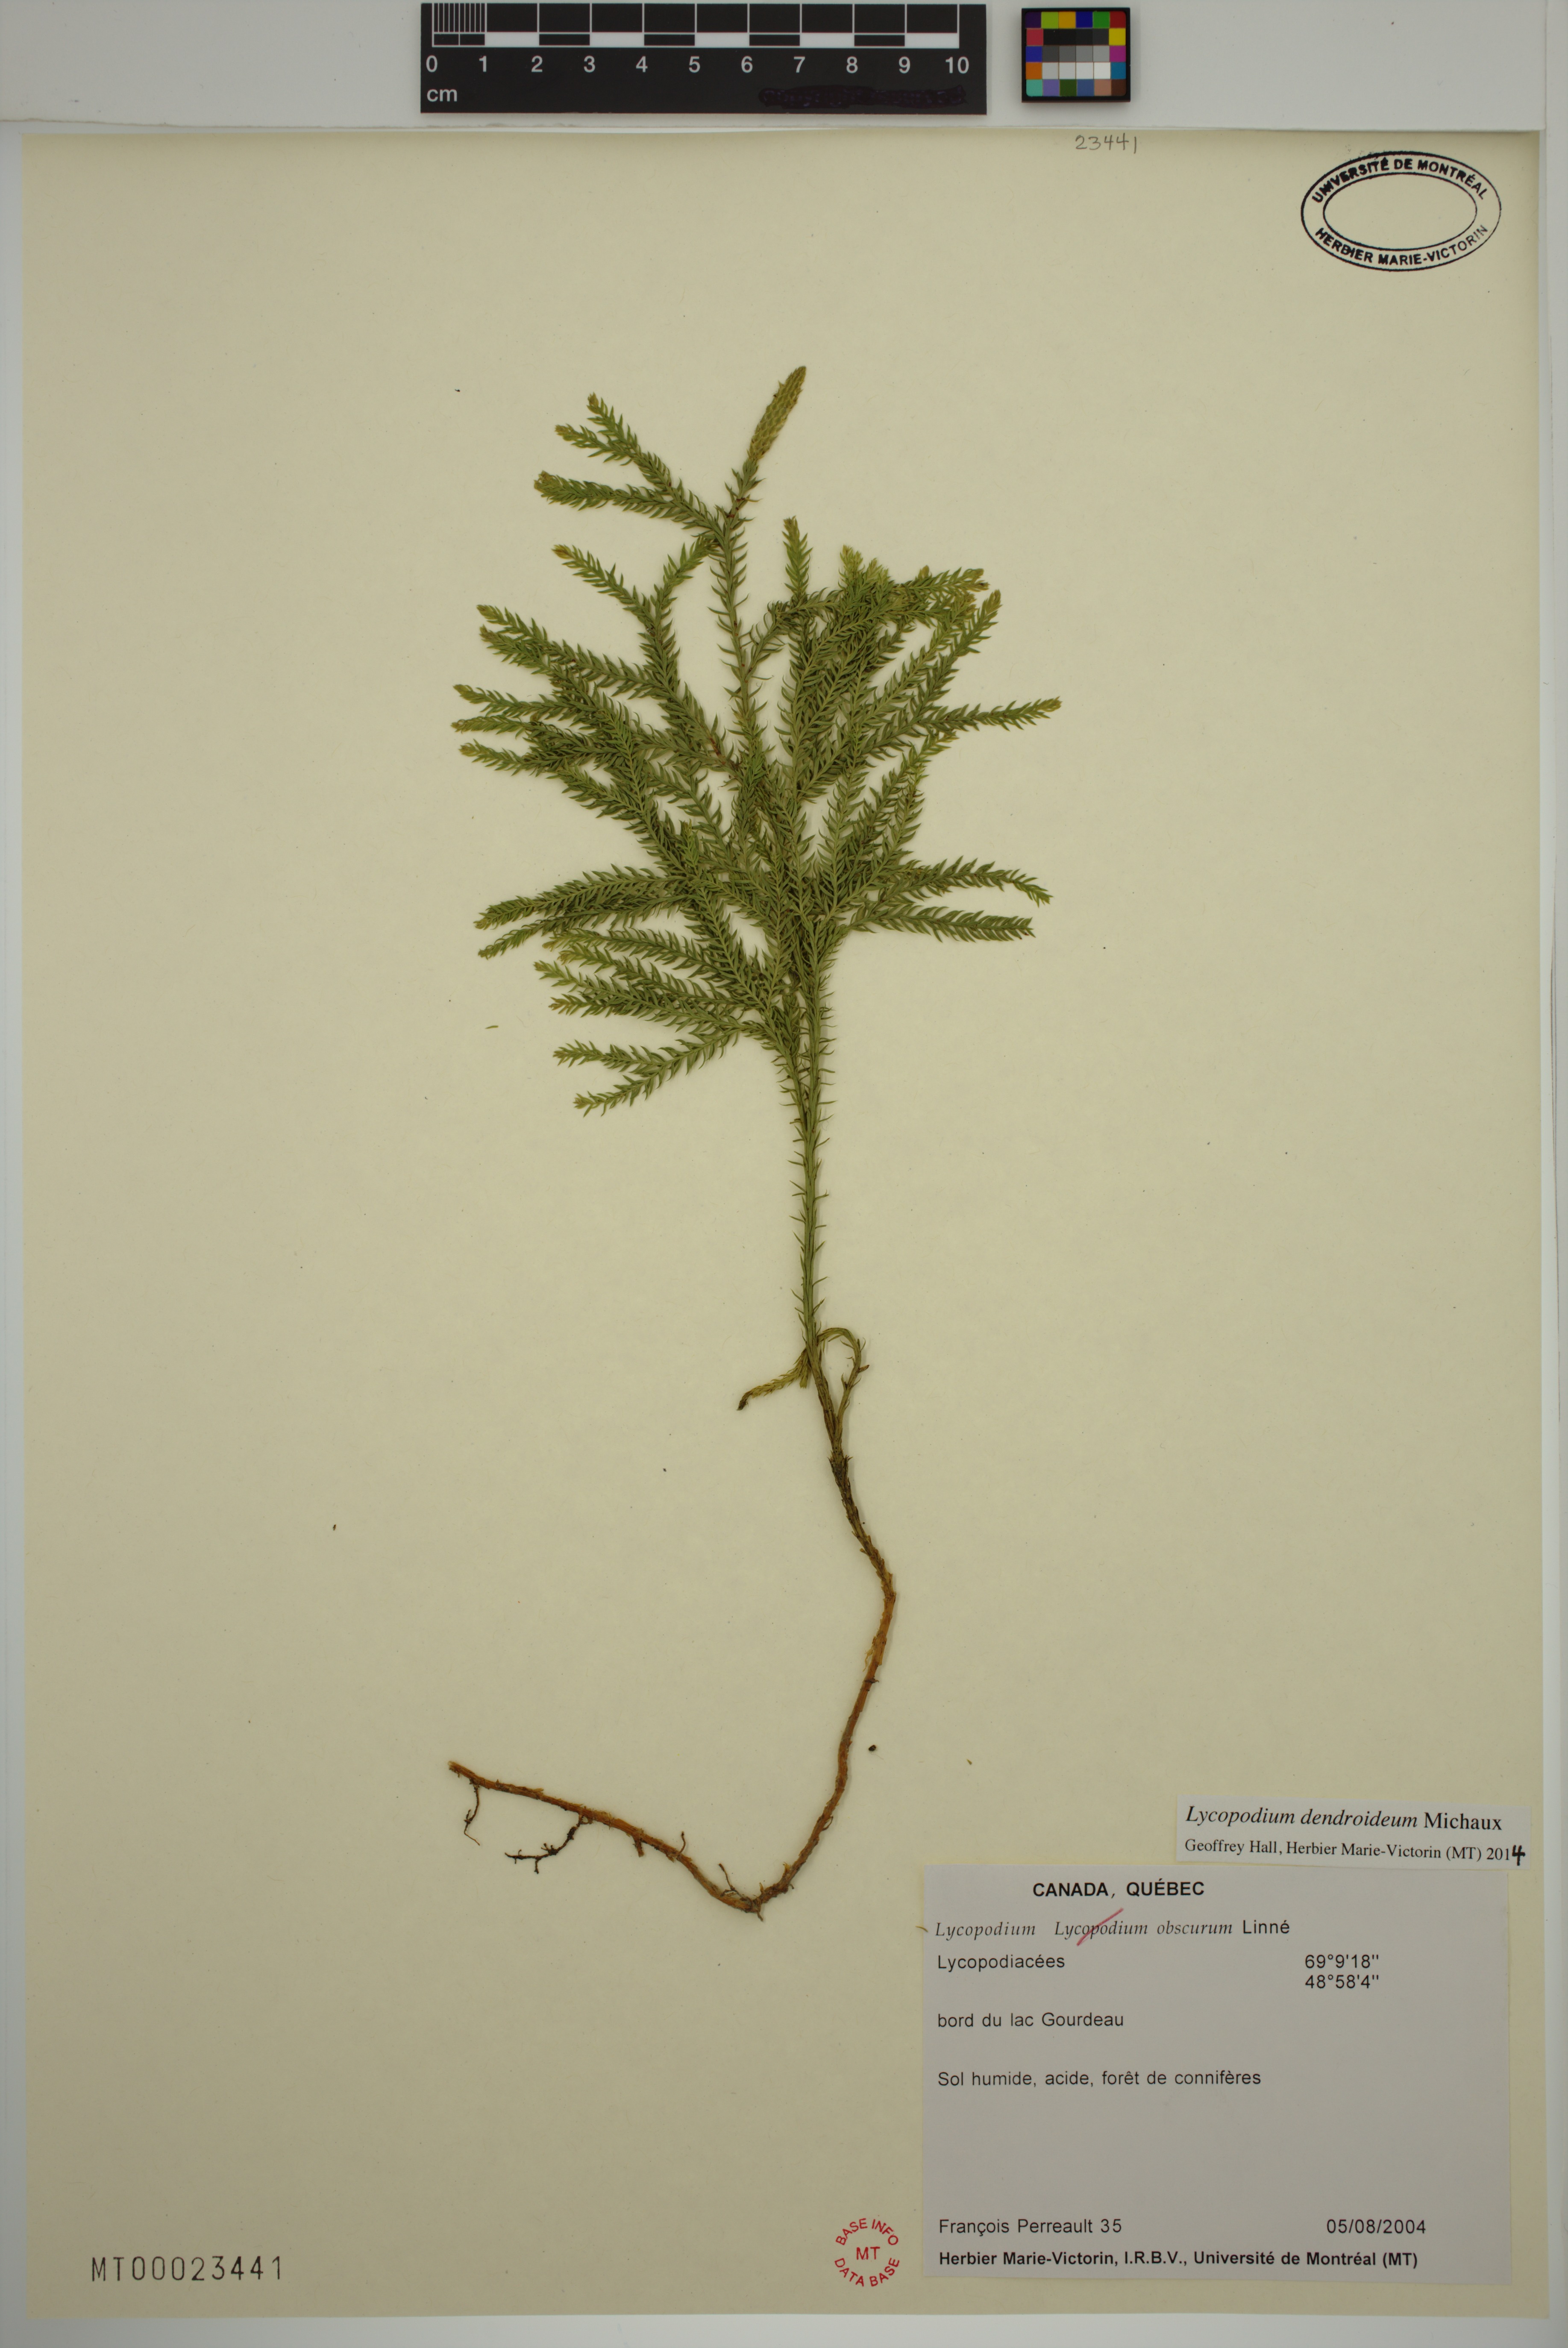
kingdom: Plantae
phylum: Tracheophyta
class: Lycopodiopsida
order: Lycopodiales
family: Lycopodiaceae
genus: Dendrolycopodium
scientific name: Dendrolycopodium dendroideum
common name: Northern tree-clubmoss
